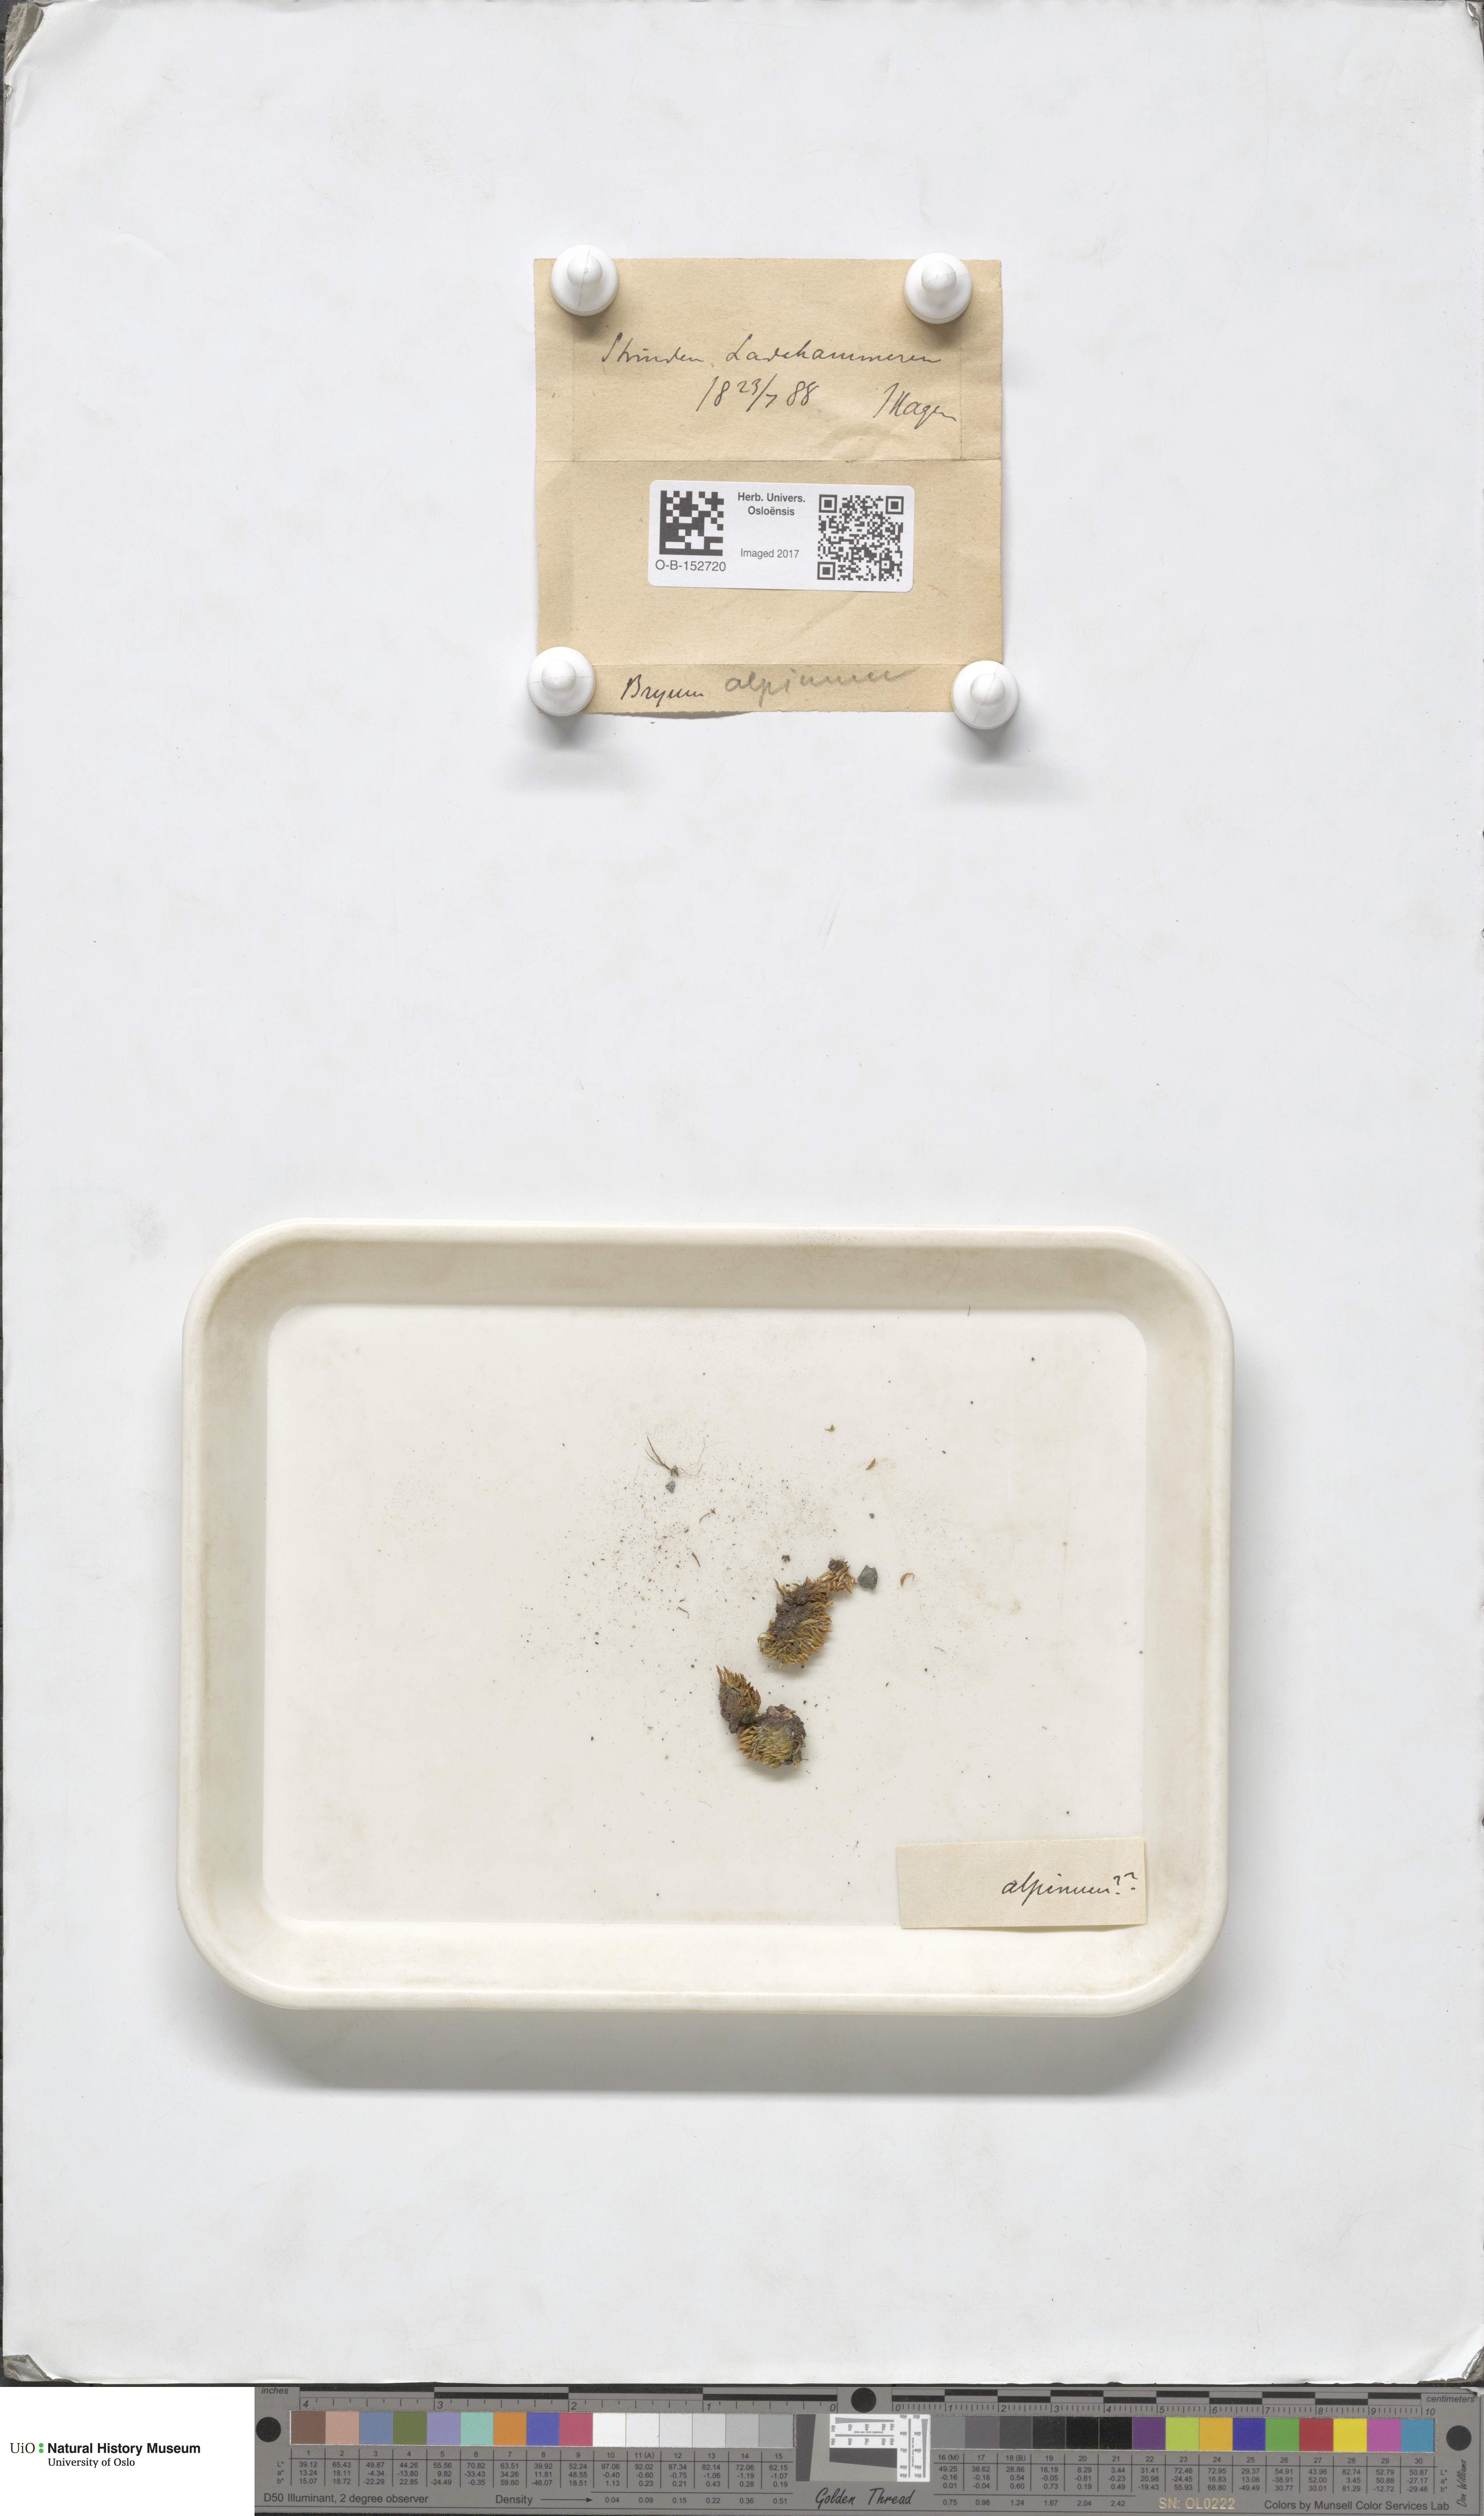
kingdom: Plantae
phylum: Bryophyta
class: Bryopsida
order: Bryales
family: Bryaceae
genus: Imbribryum
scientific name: Imbribryum alpinum
